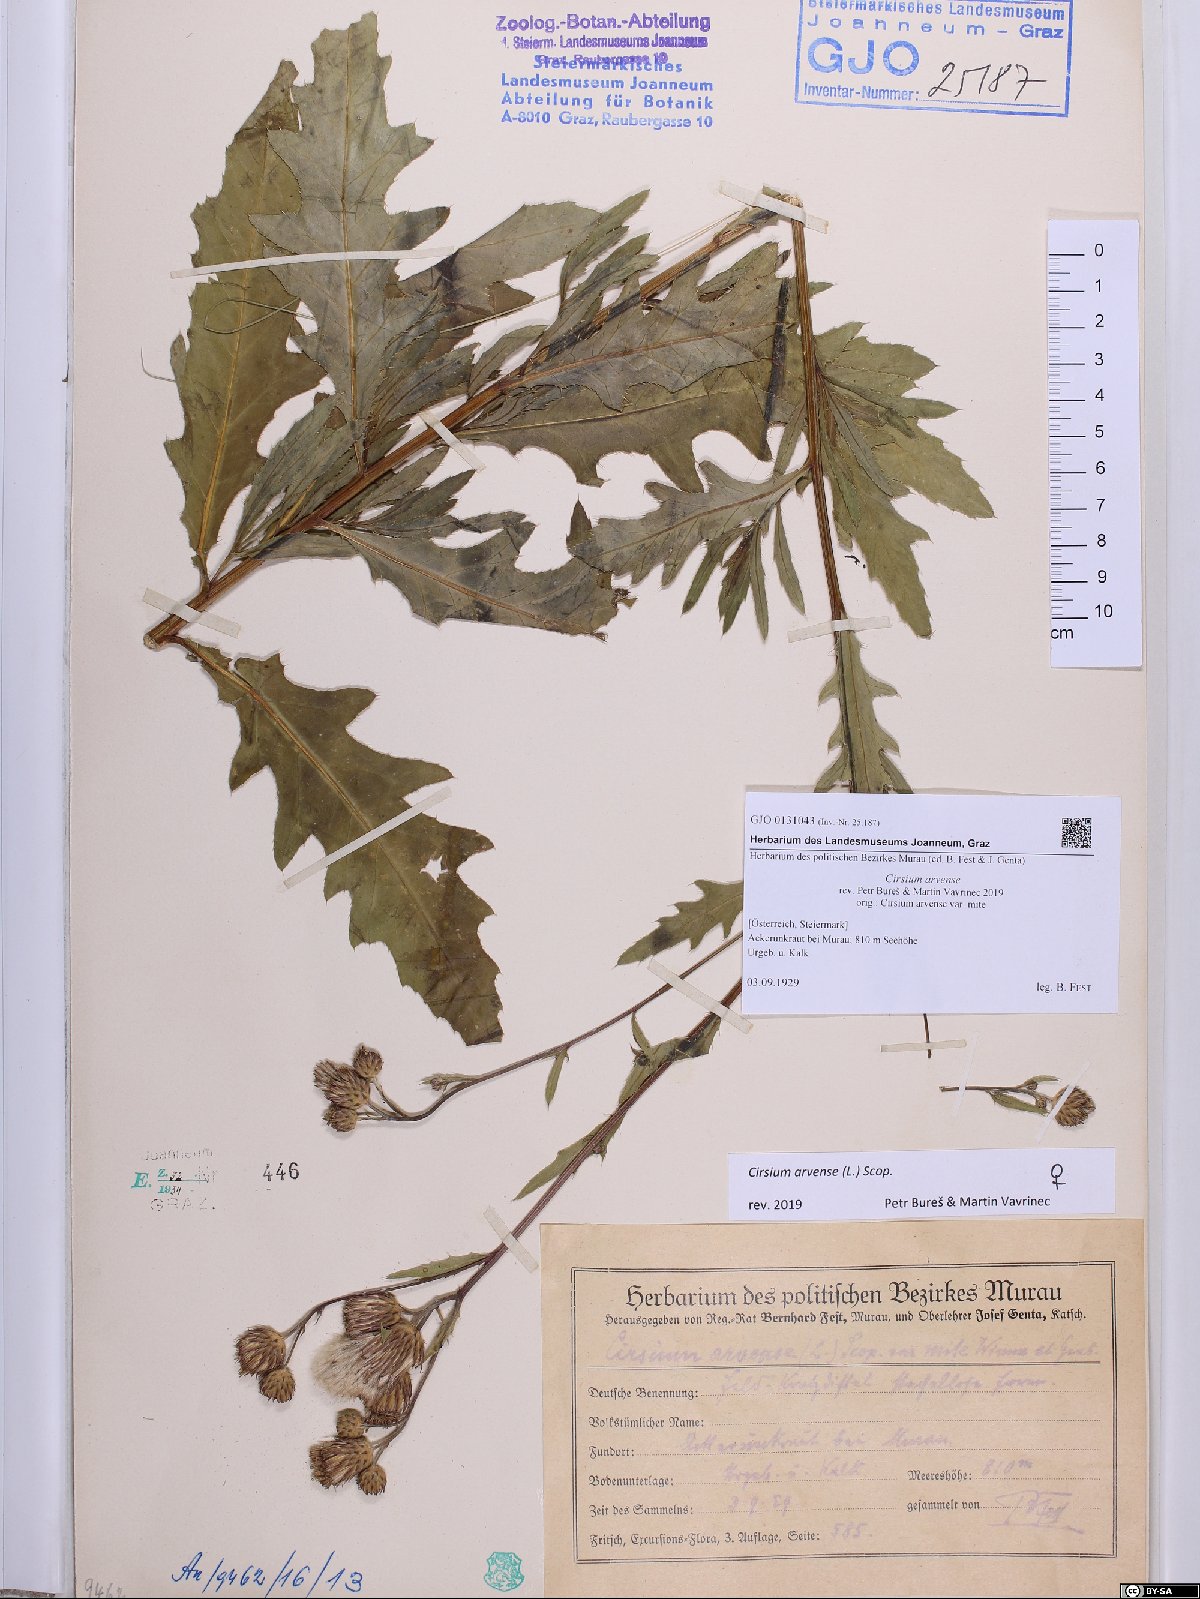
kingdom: Plantae
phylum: Tracheophyta
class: Magnoliopsida
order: Asterales
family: Asteraceae
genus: Cirsium
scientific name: Cirsium arvense
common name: Creeping thistle
